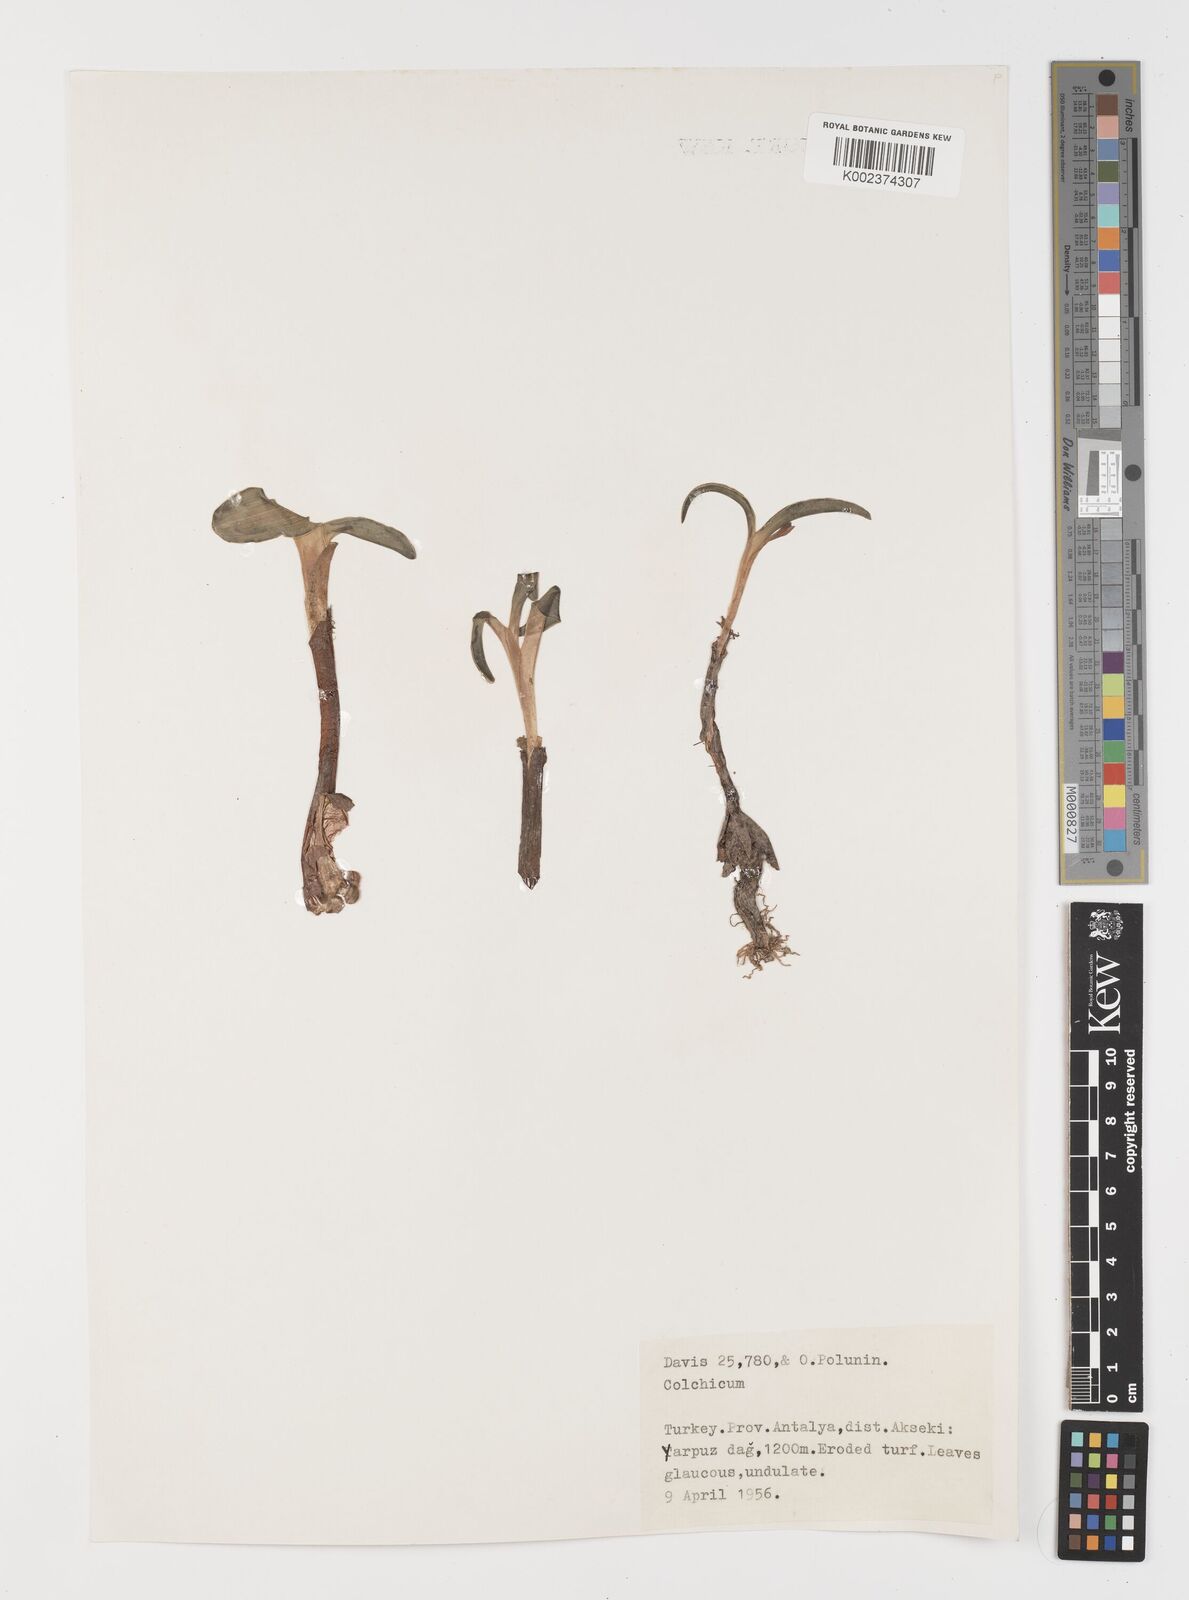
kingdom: Plantae
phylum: Tracheophyta
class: Liliopsida
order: Liliales
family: Colchicaceae
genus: Colchicum
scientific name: Colchicum
